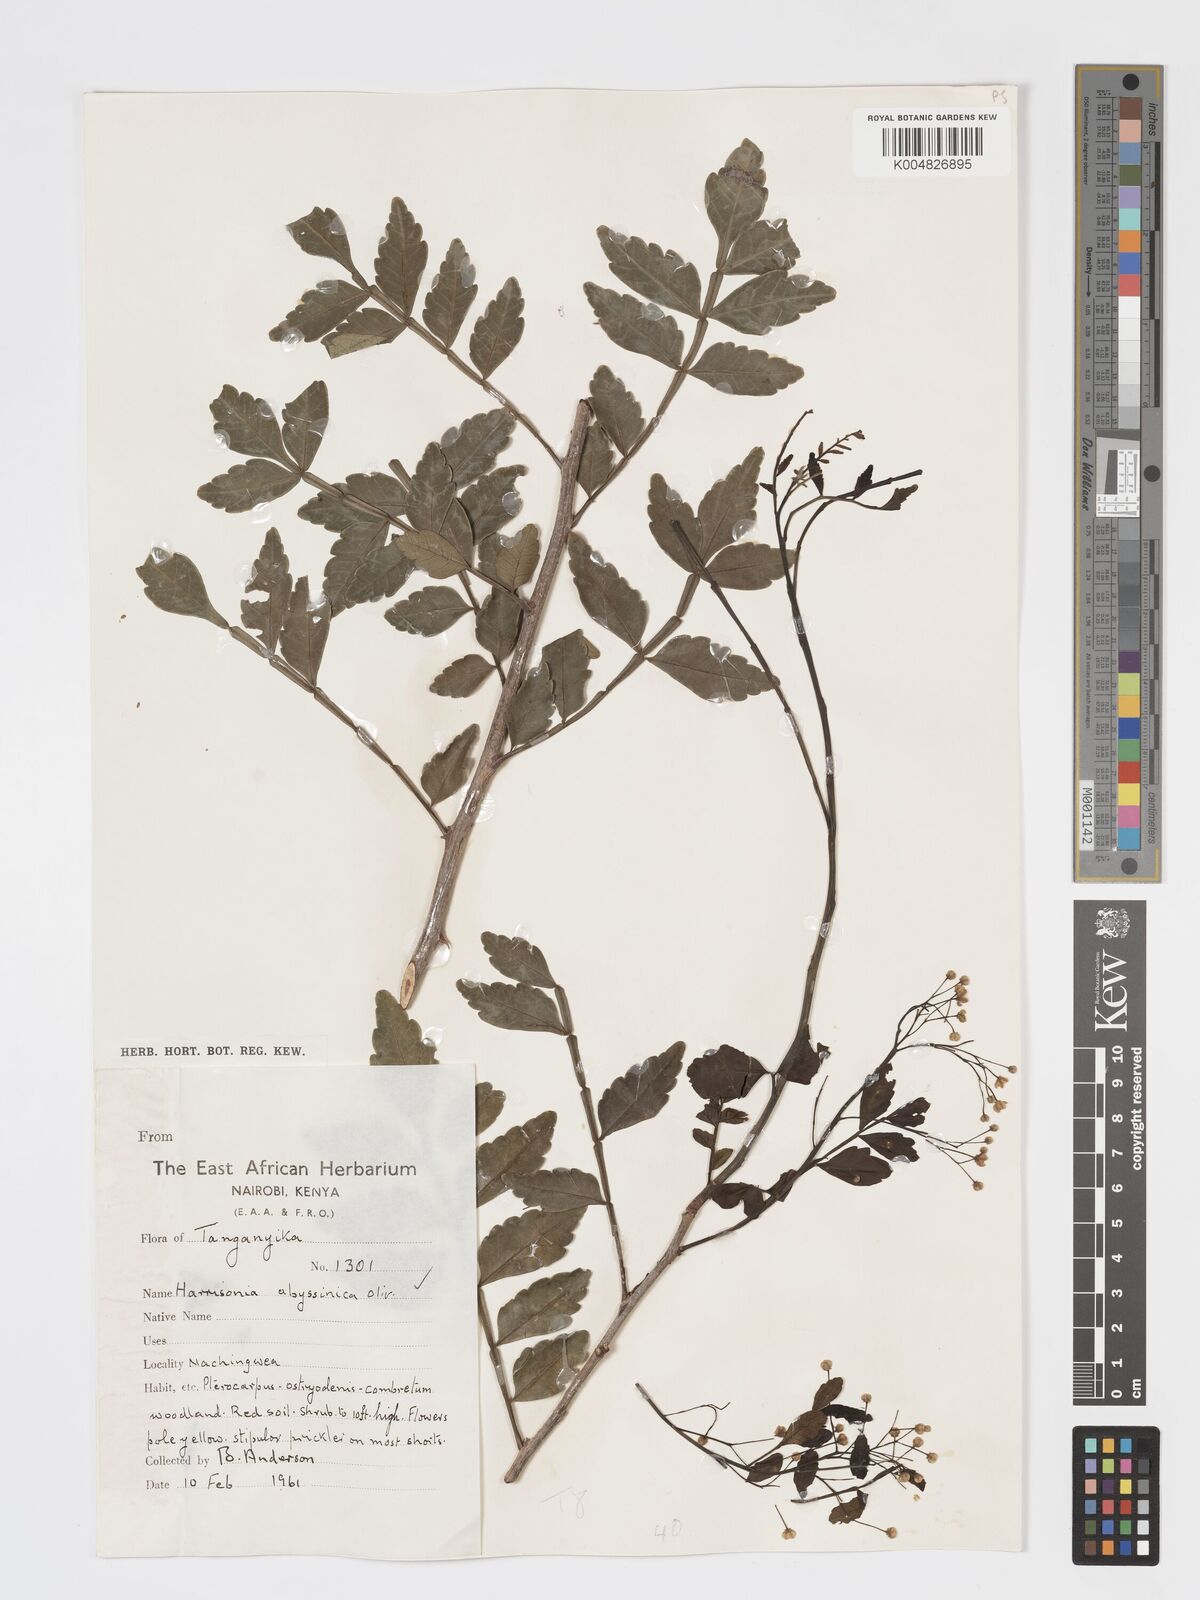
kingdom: Plantae
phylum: Tracheophyta
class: Magnoliopsida
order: Sapindales
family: Rutaceae
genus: Harrisonia
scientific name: Harrisonia abyssinica
